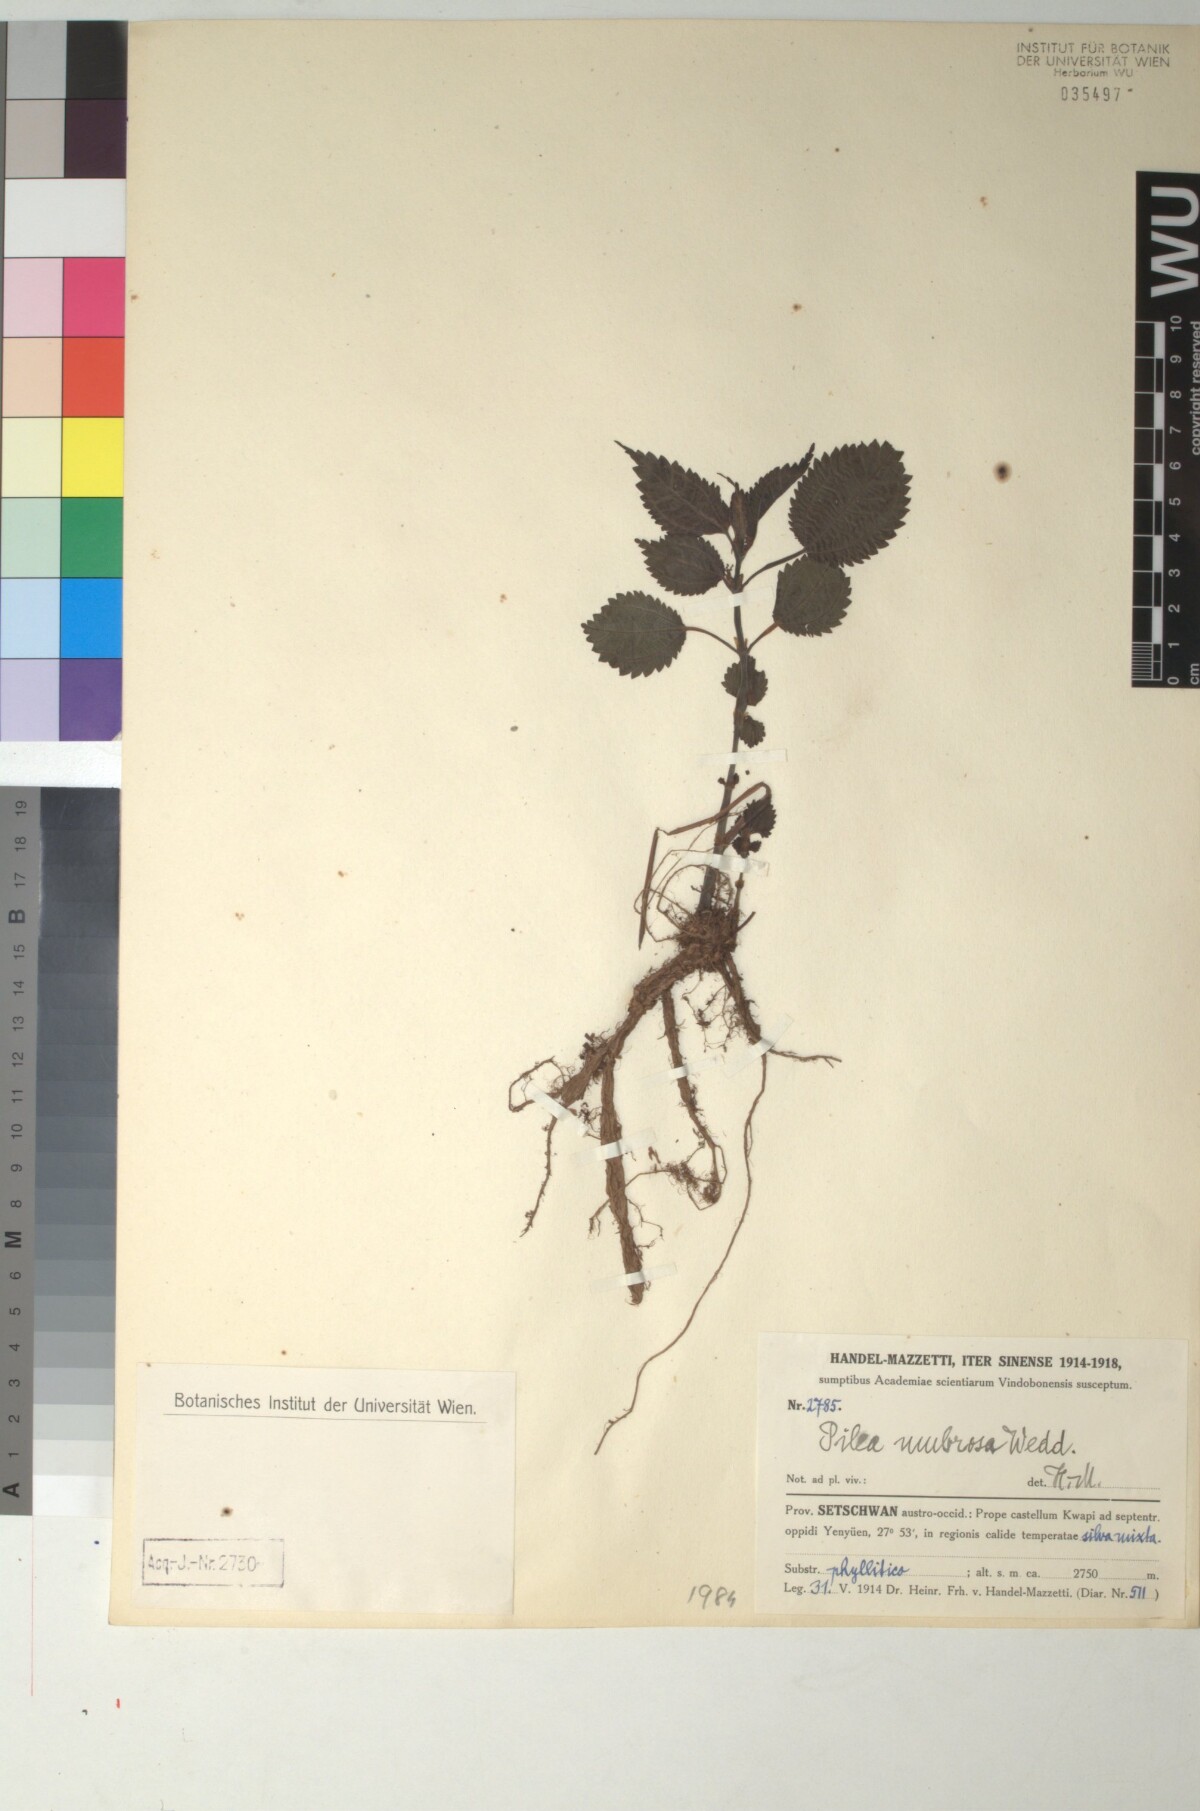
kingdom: Plantae
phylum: Tracheophyta
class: Magnoliopsida
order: Rosales
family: Urticaceae
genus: Pilea
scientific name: Pilea umbrosa
